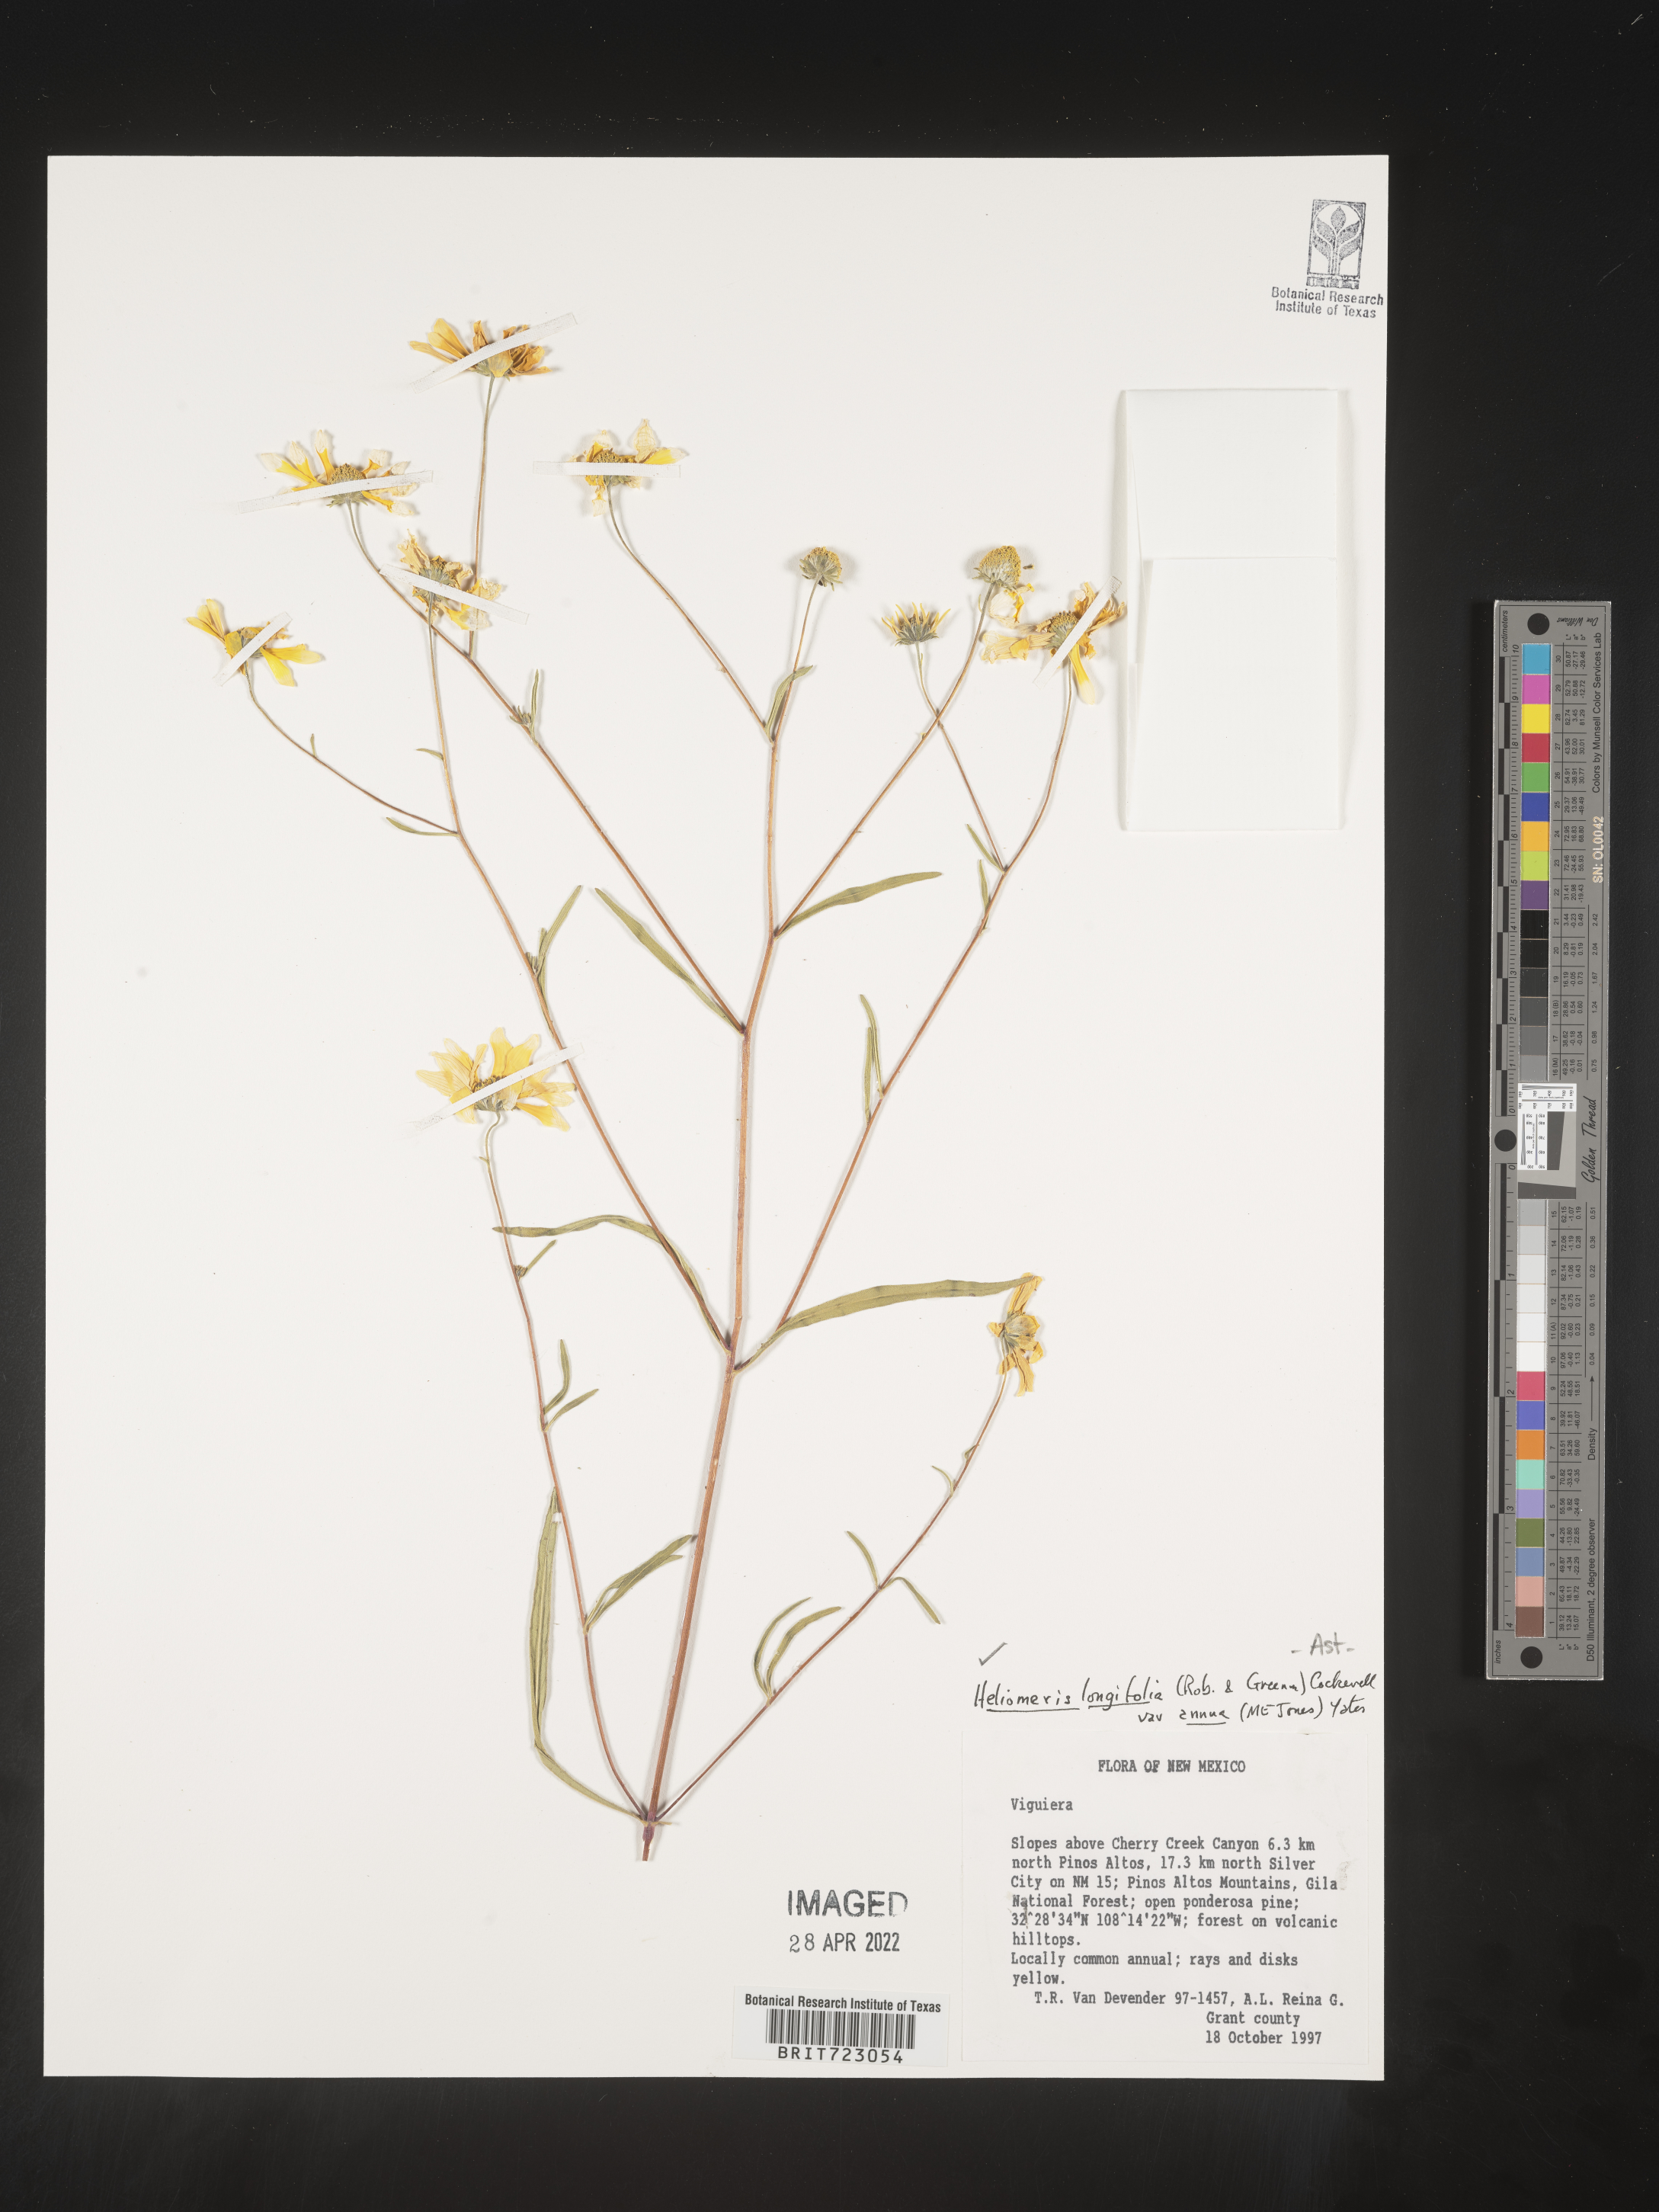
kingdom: Plantae
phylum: Tracheophyta
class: Magnoliopsida
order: Asterales
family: Asteraceae
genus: Heliomeris
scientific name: Heliomeris longifolia
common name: Longleaf false goldeneye
